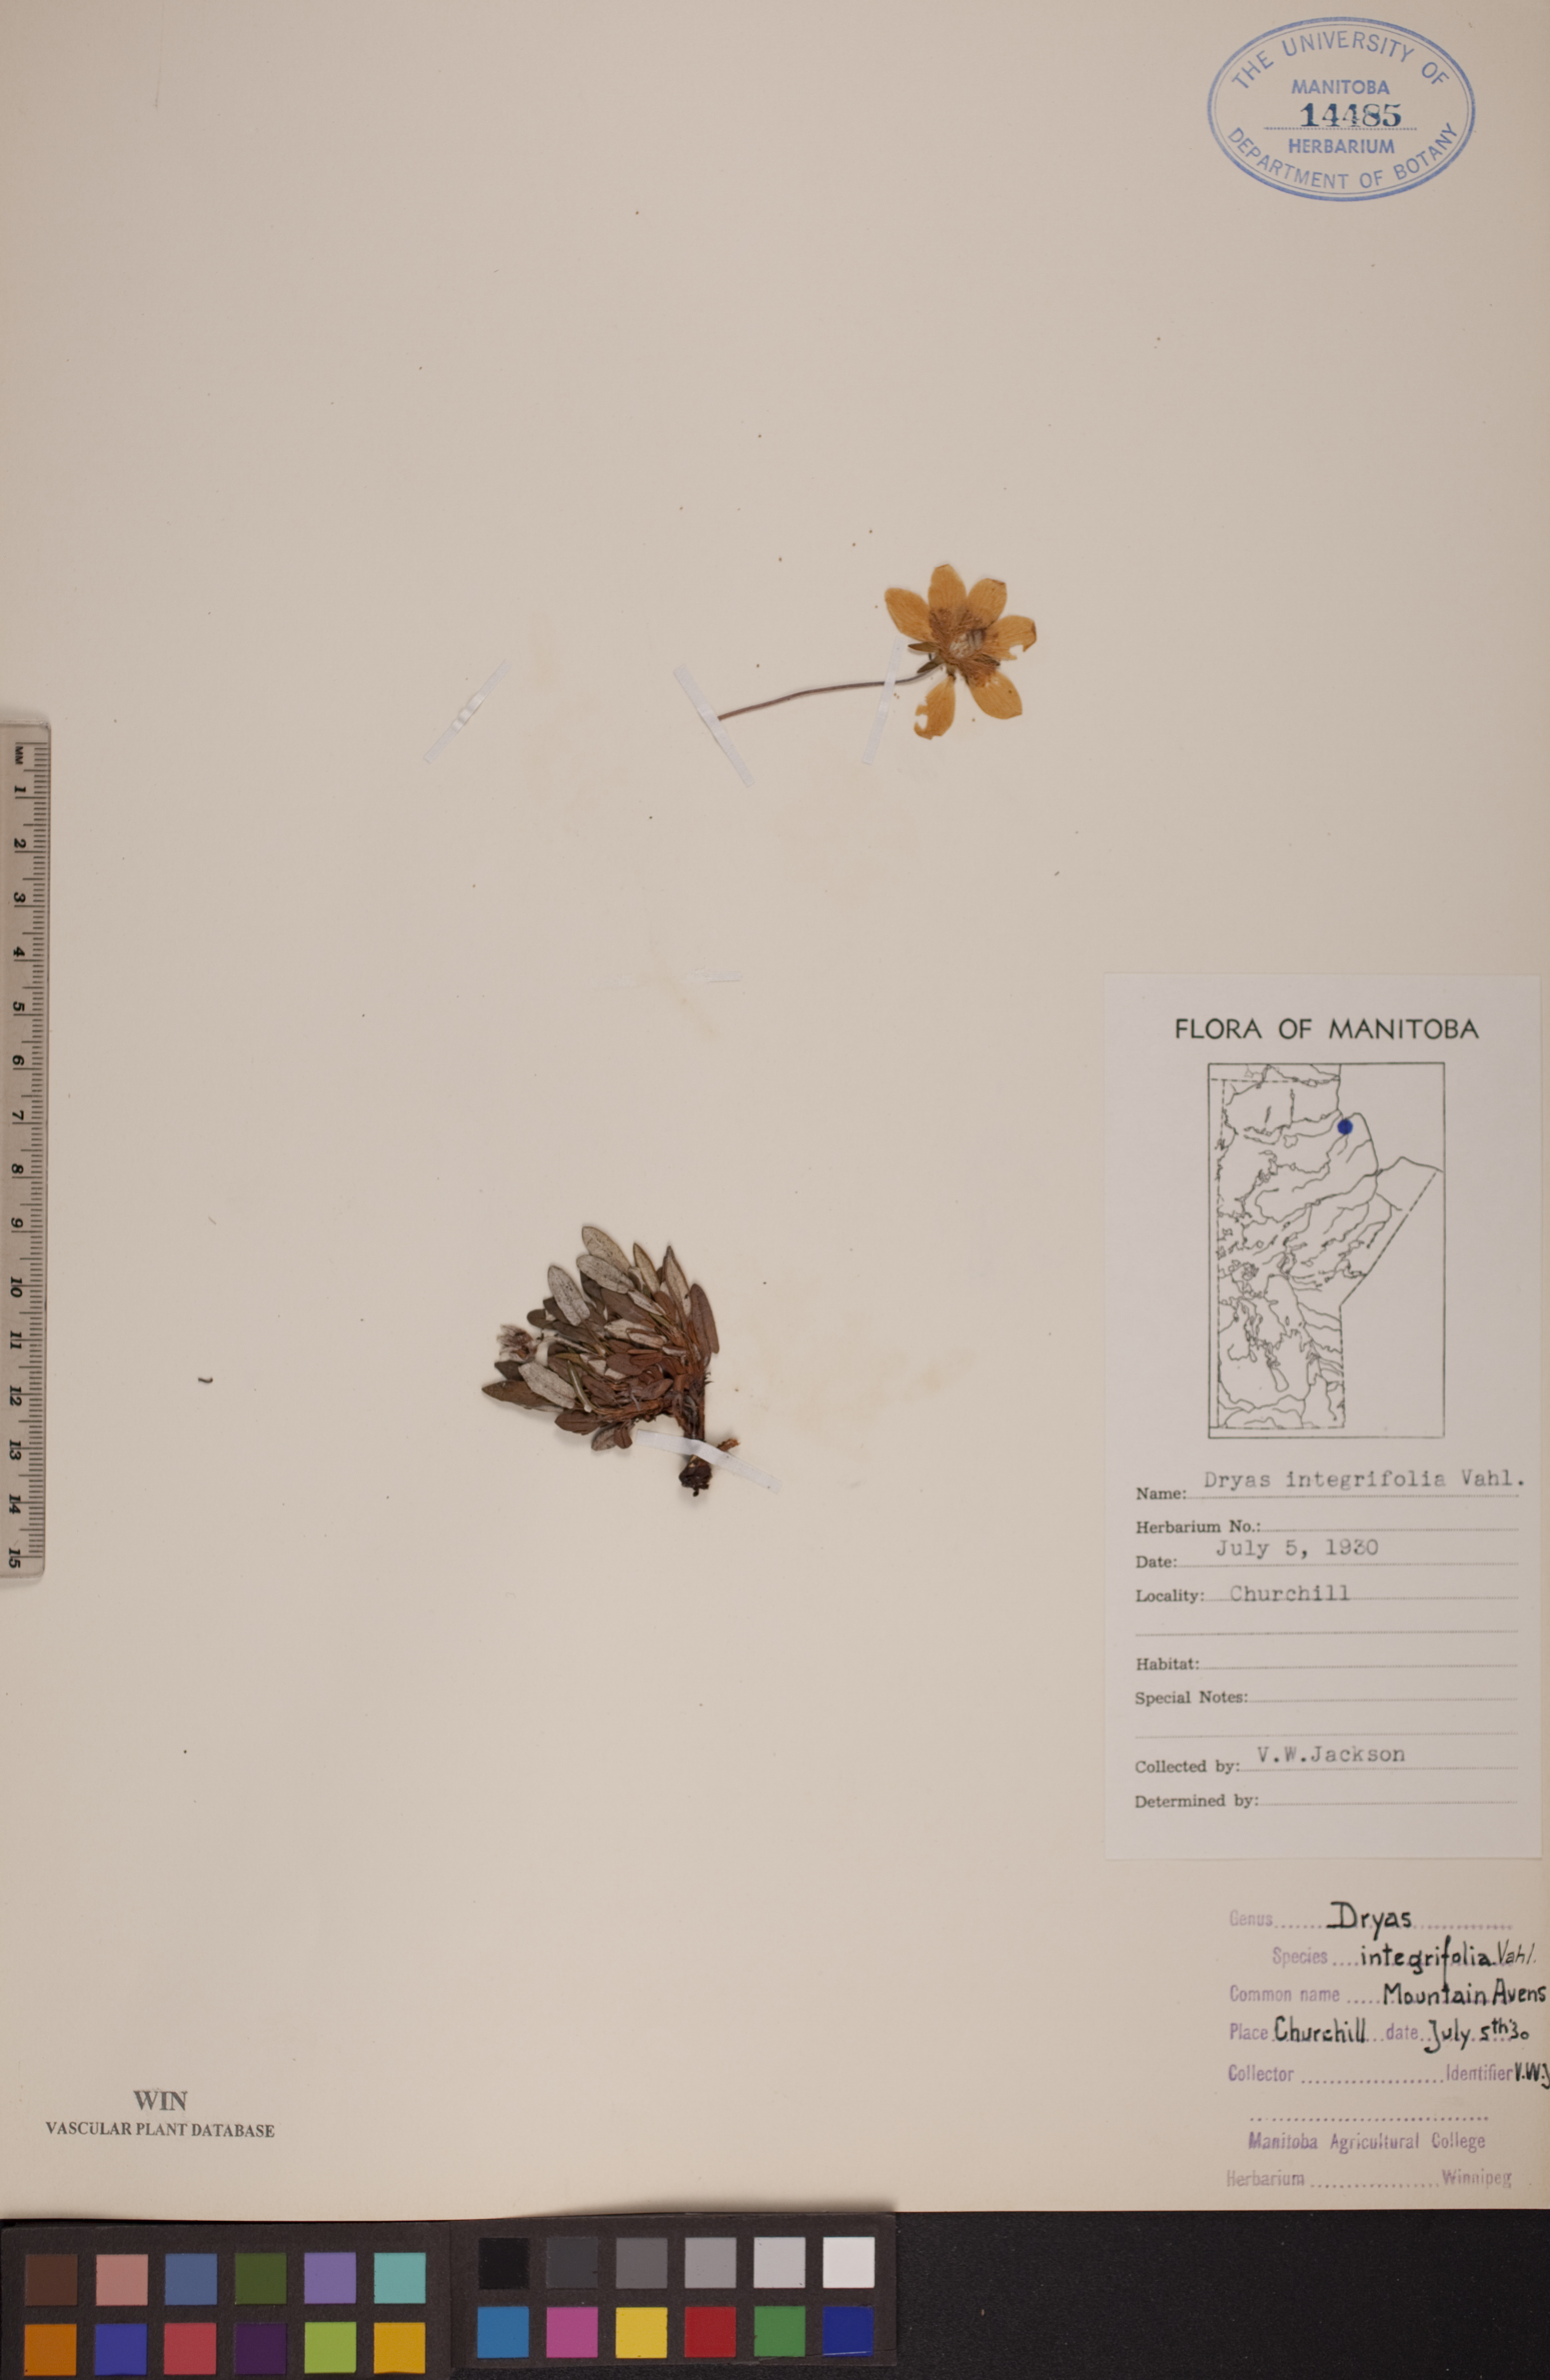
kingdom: Plantae
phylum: Tracheophyta
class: Magnoliopsida
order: Rosales
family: Rosaceae
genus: Dryas
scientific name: Dryas integrifolia
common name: Entire-leaved mountain avens
